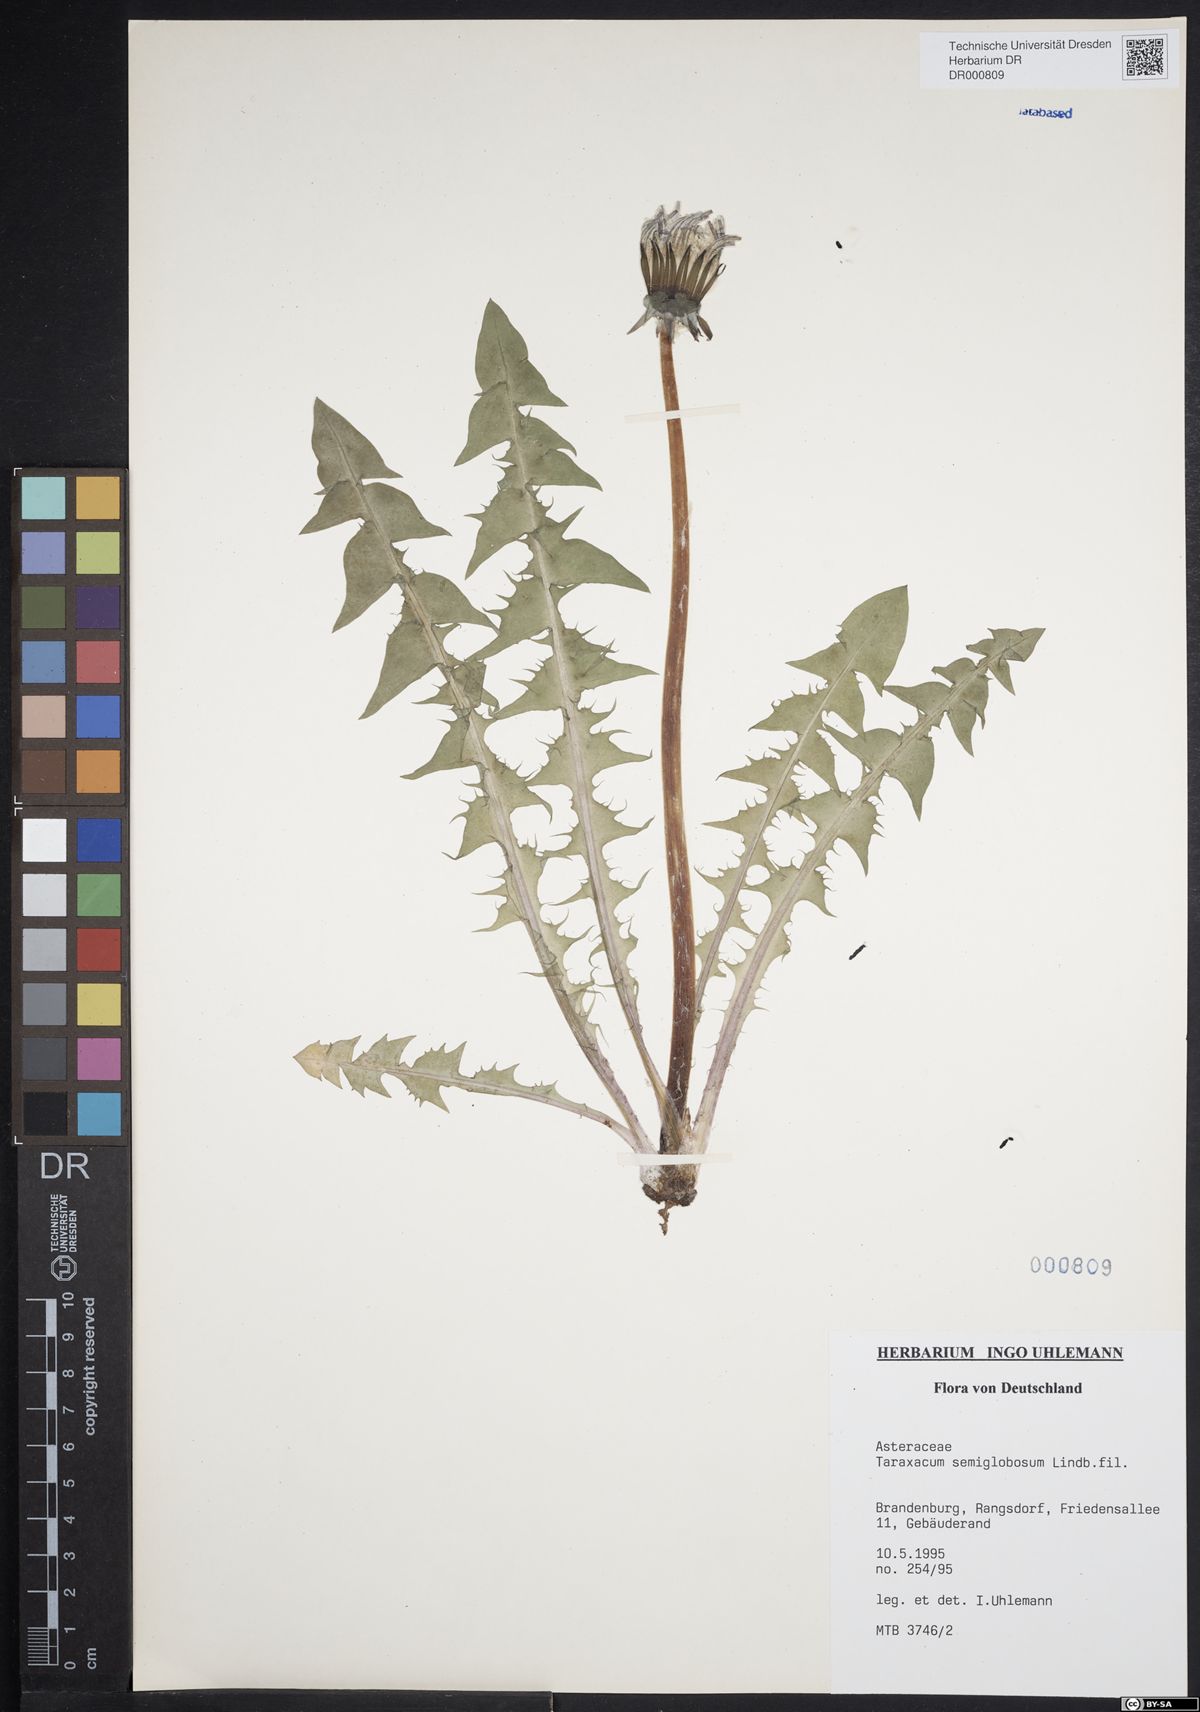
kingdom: Plantae
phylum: Tracheophyta
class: Magnoliopsida
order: Asterales
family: Asteraceae
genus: Taraxacum
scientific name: Taraxacum semiglobosum
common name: Hairy-ribbed dandelion
